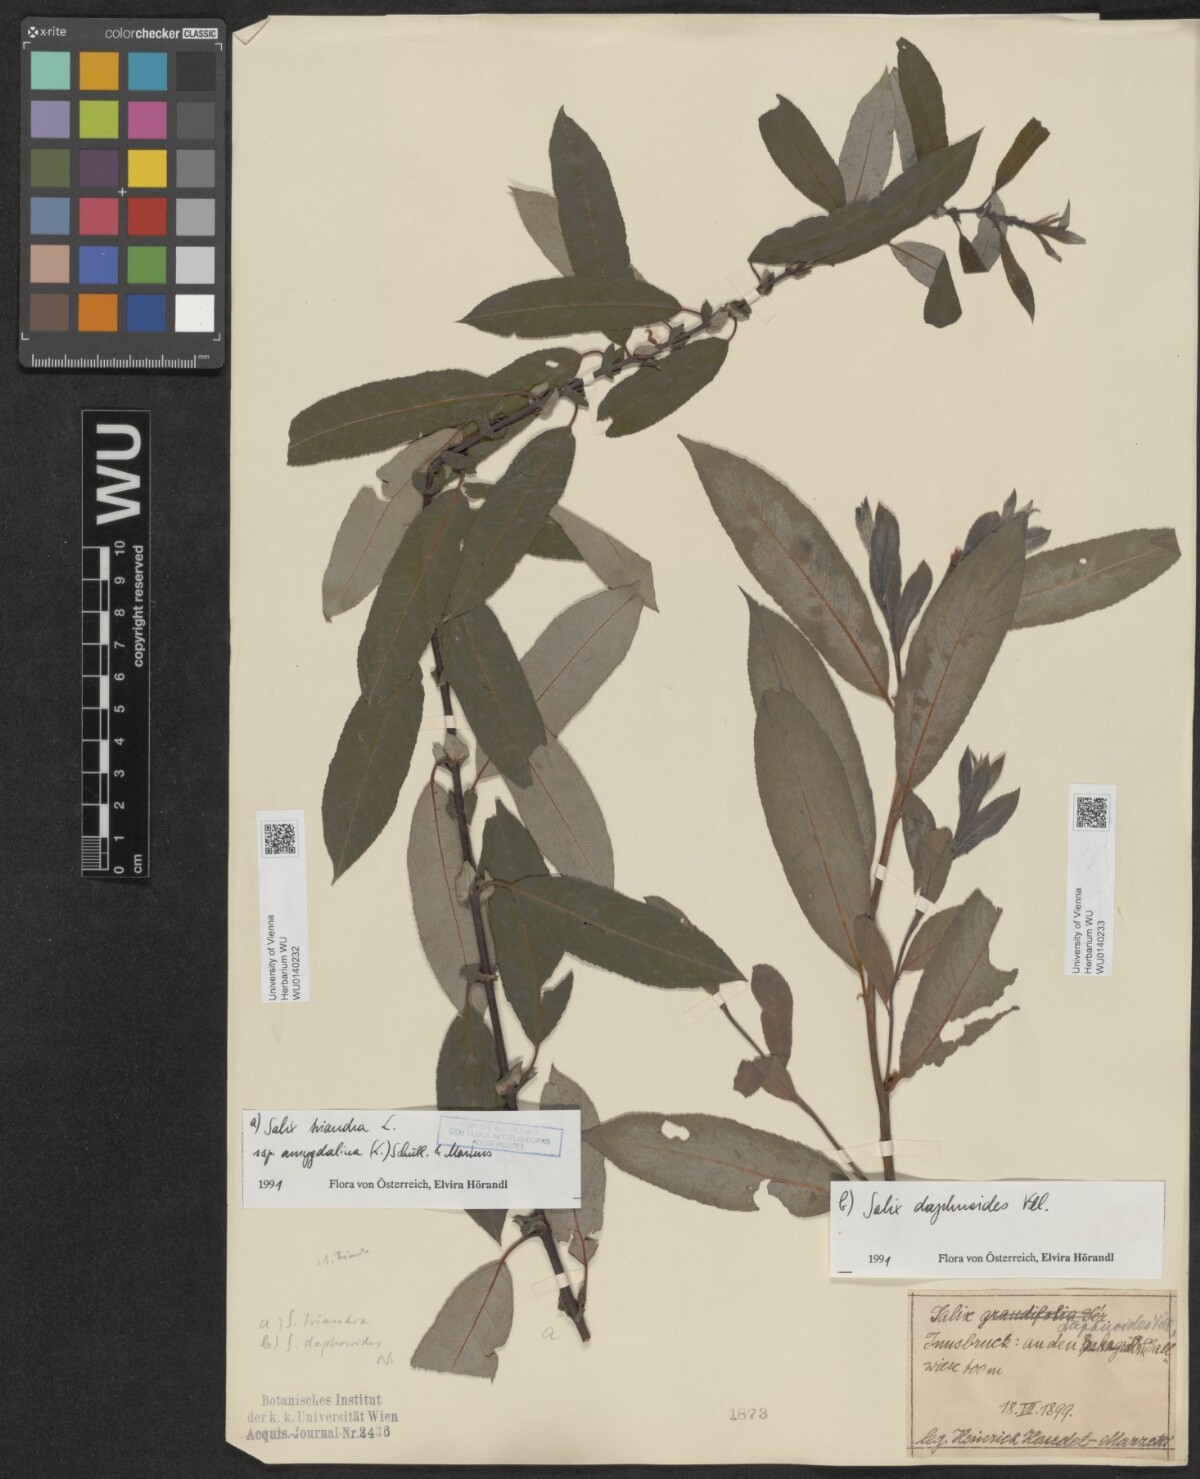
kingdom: Plantae
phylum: Tracheophyta
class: Magnoliopsida
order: Malpighiales
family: Salicaceae
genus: Salix
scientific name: Salix triandra
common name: Almond willow
